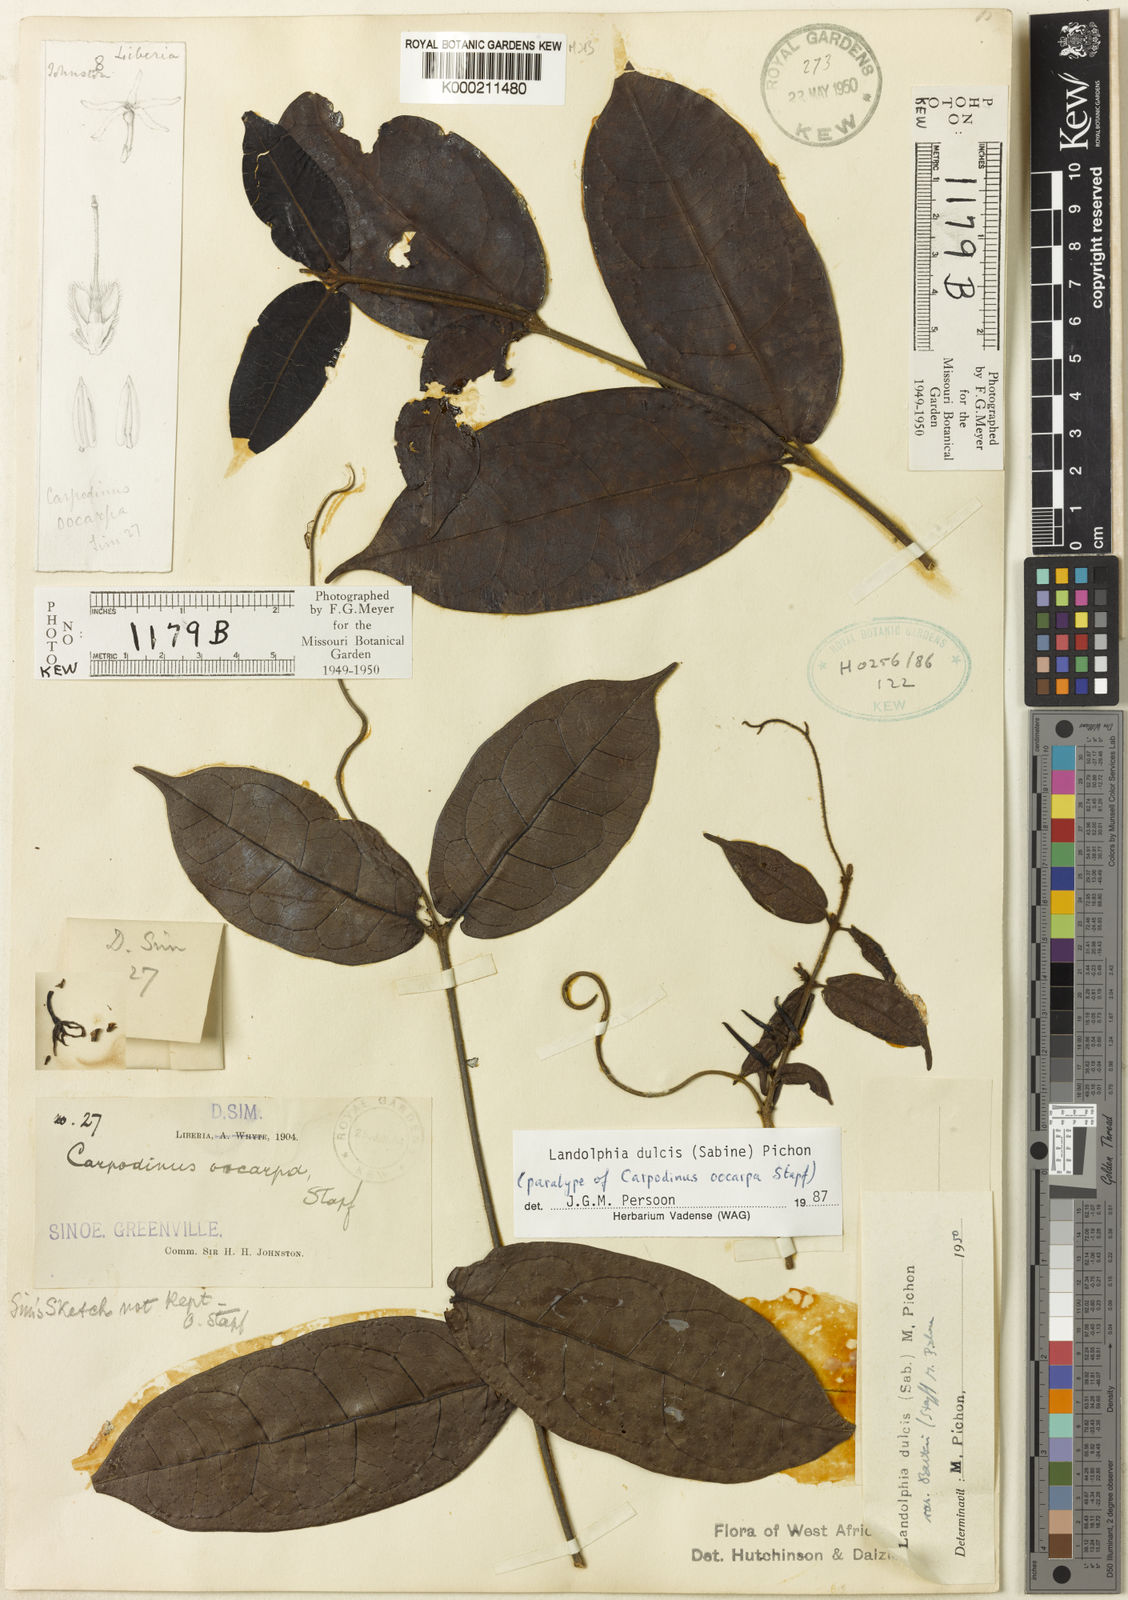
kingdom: Plantae
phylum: Tracheophyta
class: Magnoliopsida
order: Gentianales
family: Apocynaceae
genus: Landolphia
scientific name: Landolphia dulcis
